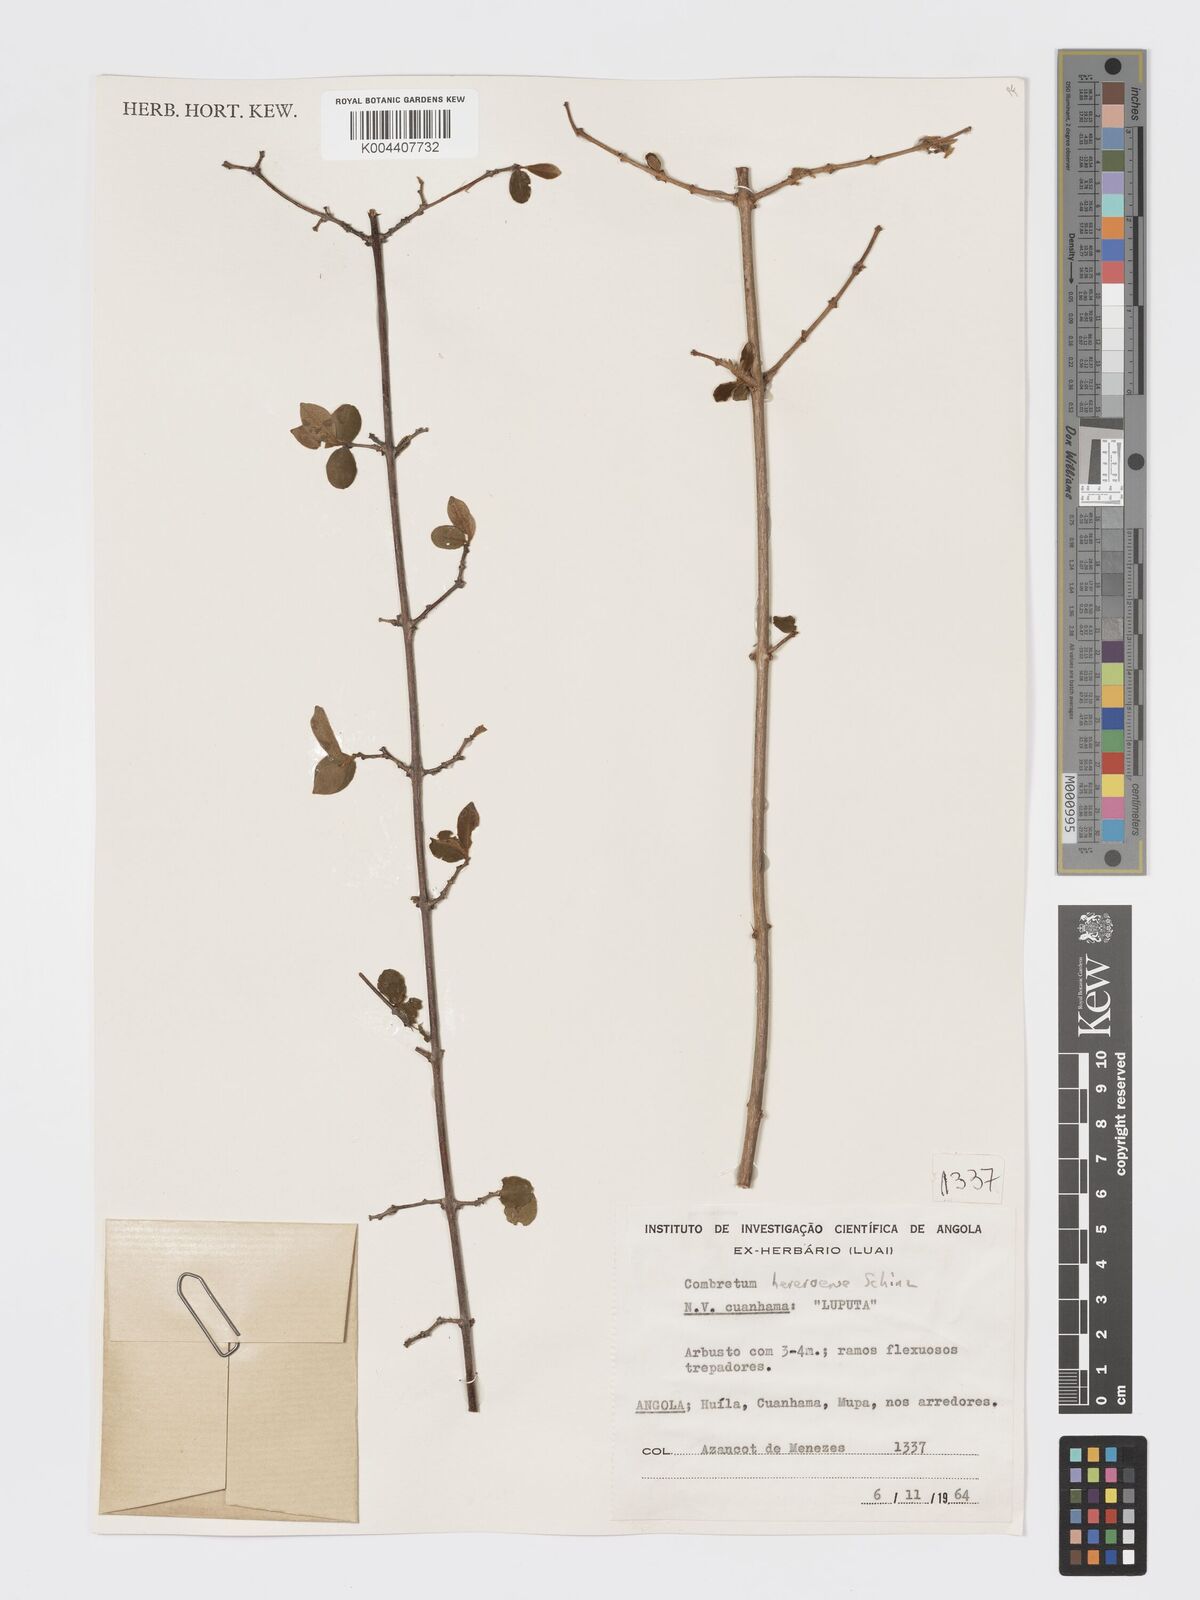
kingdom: Plantae
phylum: Tracheophyta
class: Magnoliopsida
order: Myrtales
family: Combretaceae
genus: Combretum
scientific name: Combretum hereroense
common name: Russet bushwillow
